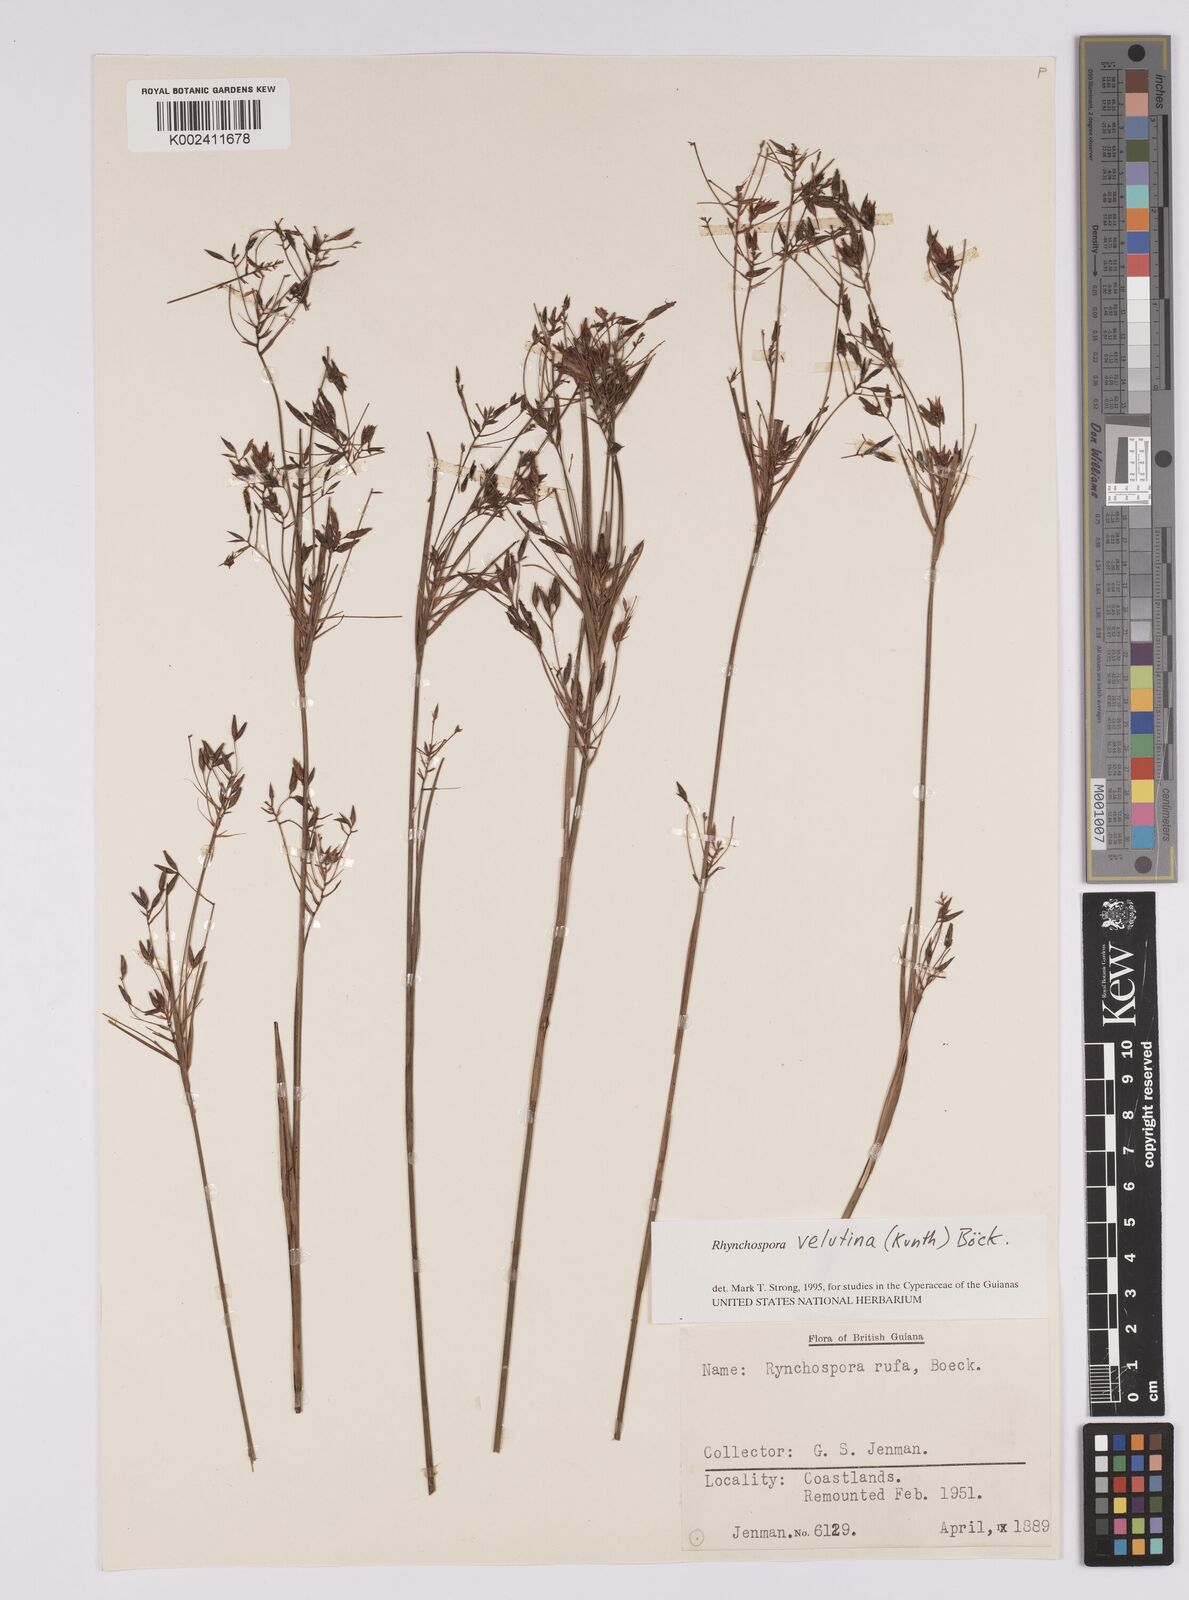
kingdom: Plantae
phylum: Tracheophyta
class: Liliopsida
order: Poales
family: Cyperaceae
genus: Rhynchospora
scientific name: Rhynchospora velutina
